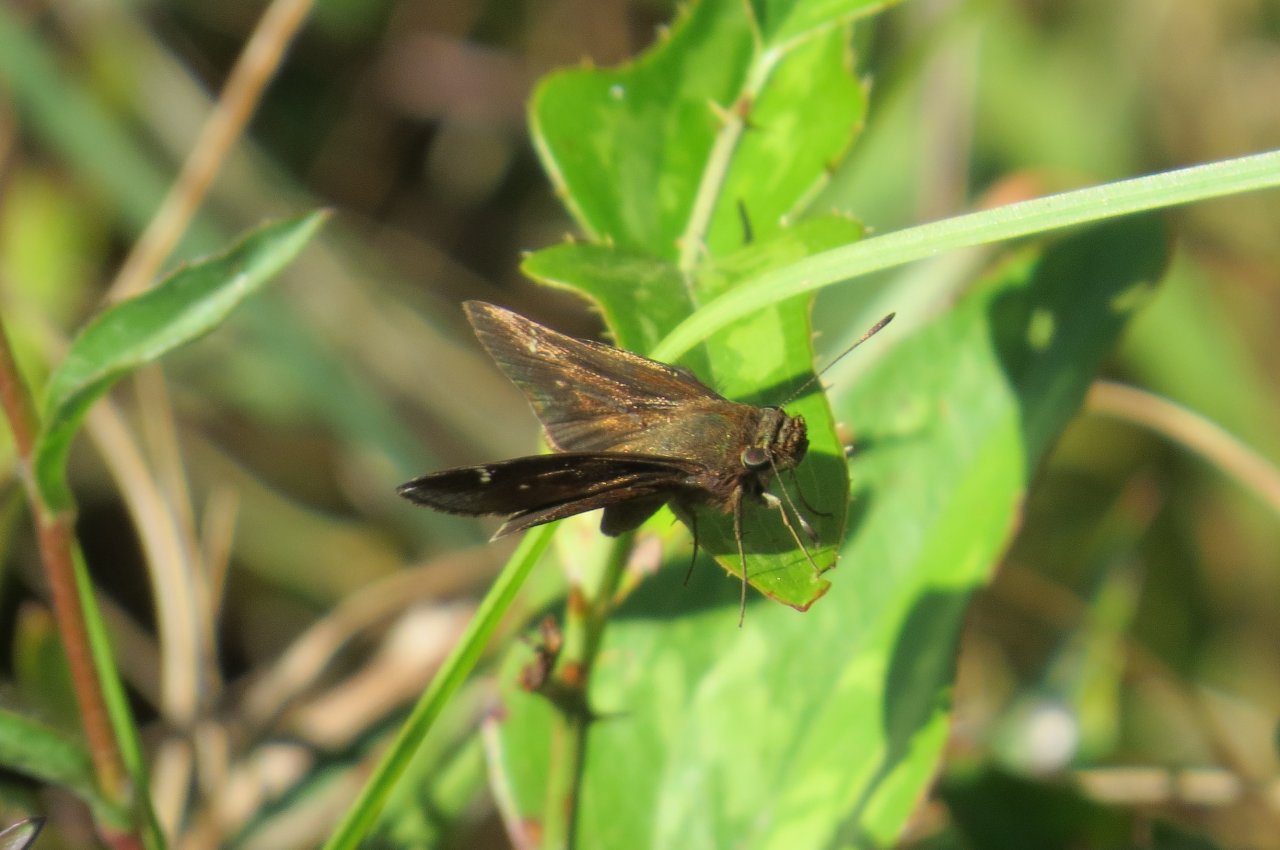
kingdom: Animalia
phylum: Arthropoda
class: Insecta
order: Lepidoptera
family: Hesperiidae
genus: Lerema
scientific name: Lerema accius
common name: Clouded Skipper
